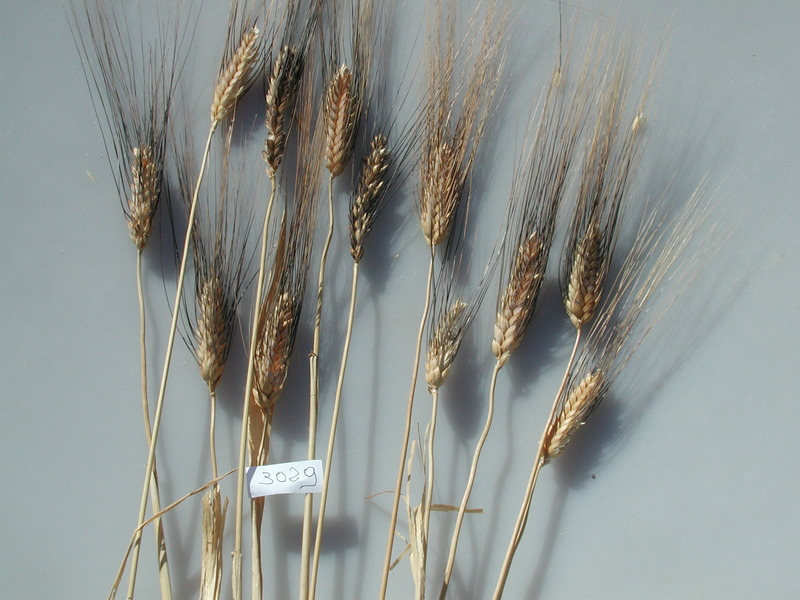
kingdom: Plantae
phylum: Tracheophyta
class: Liliopsida
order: Poales
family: Poaceae
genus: Triticum
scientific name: Triticum turgidum
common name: Wheat
